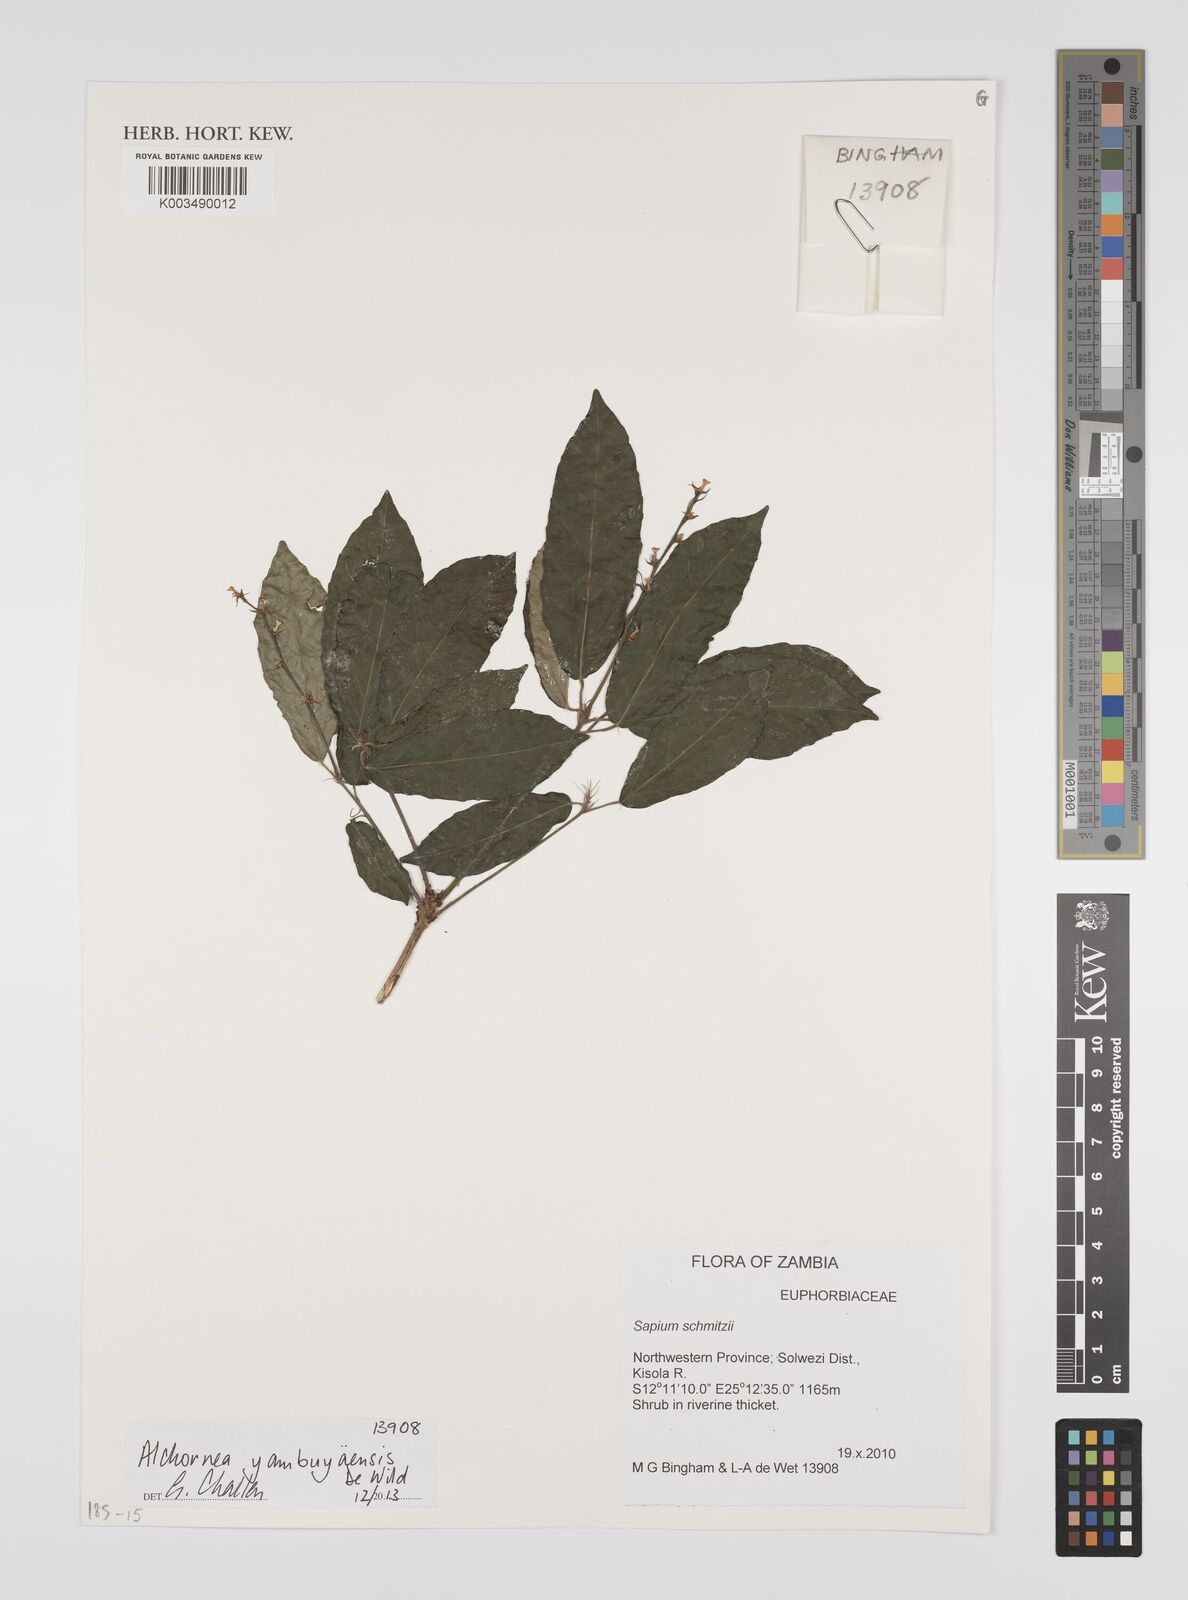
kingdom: Plantae
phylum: Tracheophyta
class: Magnoliopsida
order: Malpighiales
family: Euphorbiaceae
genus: Alchornea
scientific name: Alchornea yambuyaensis
